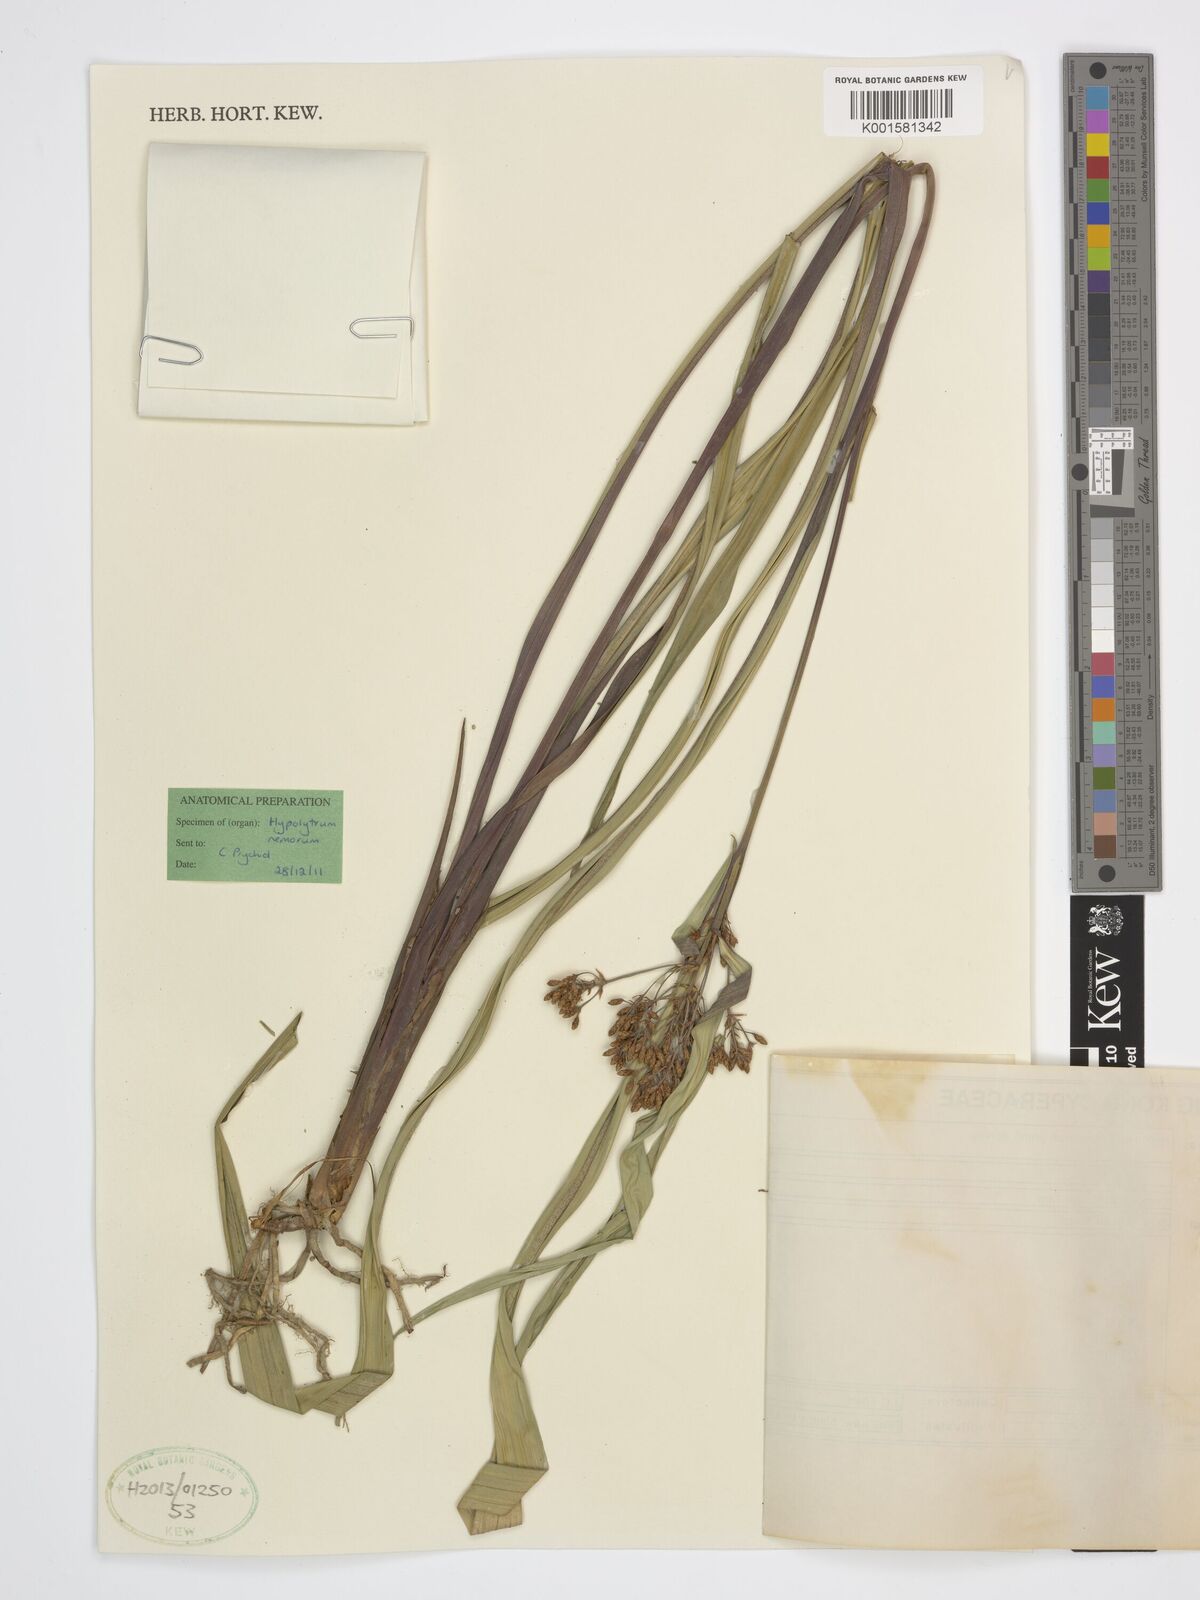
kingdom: Plantae
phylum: Tracheophyta
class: Liliopsida
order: Poales
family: Cyperaceae
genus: Hypolytrum
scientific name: Hypolytrum nemorum
